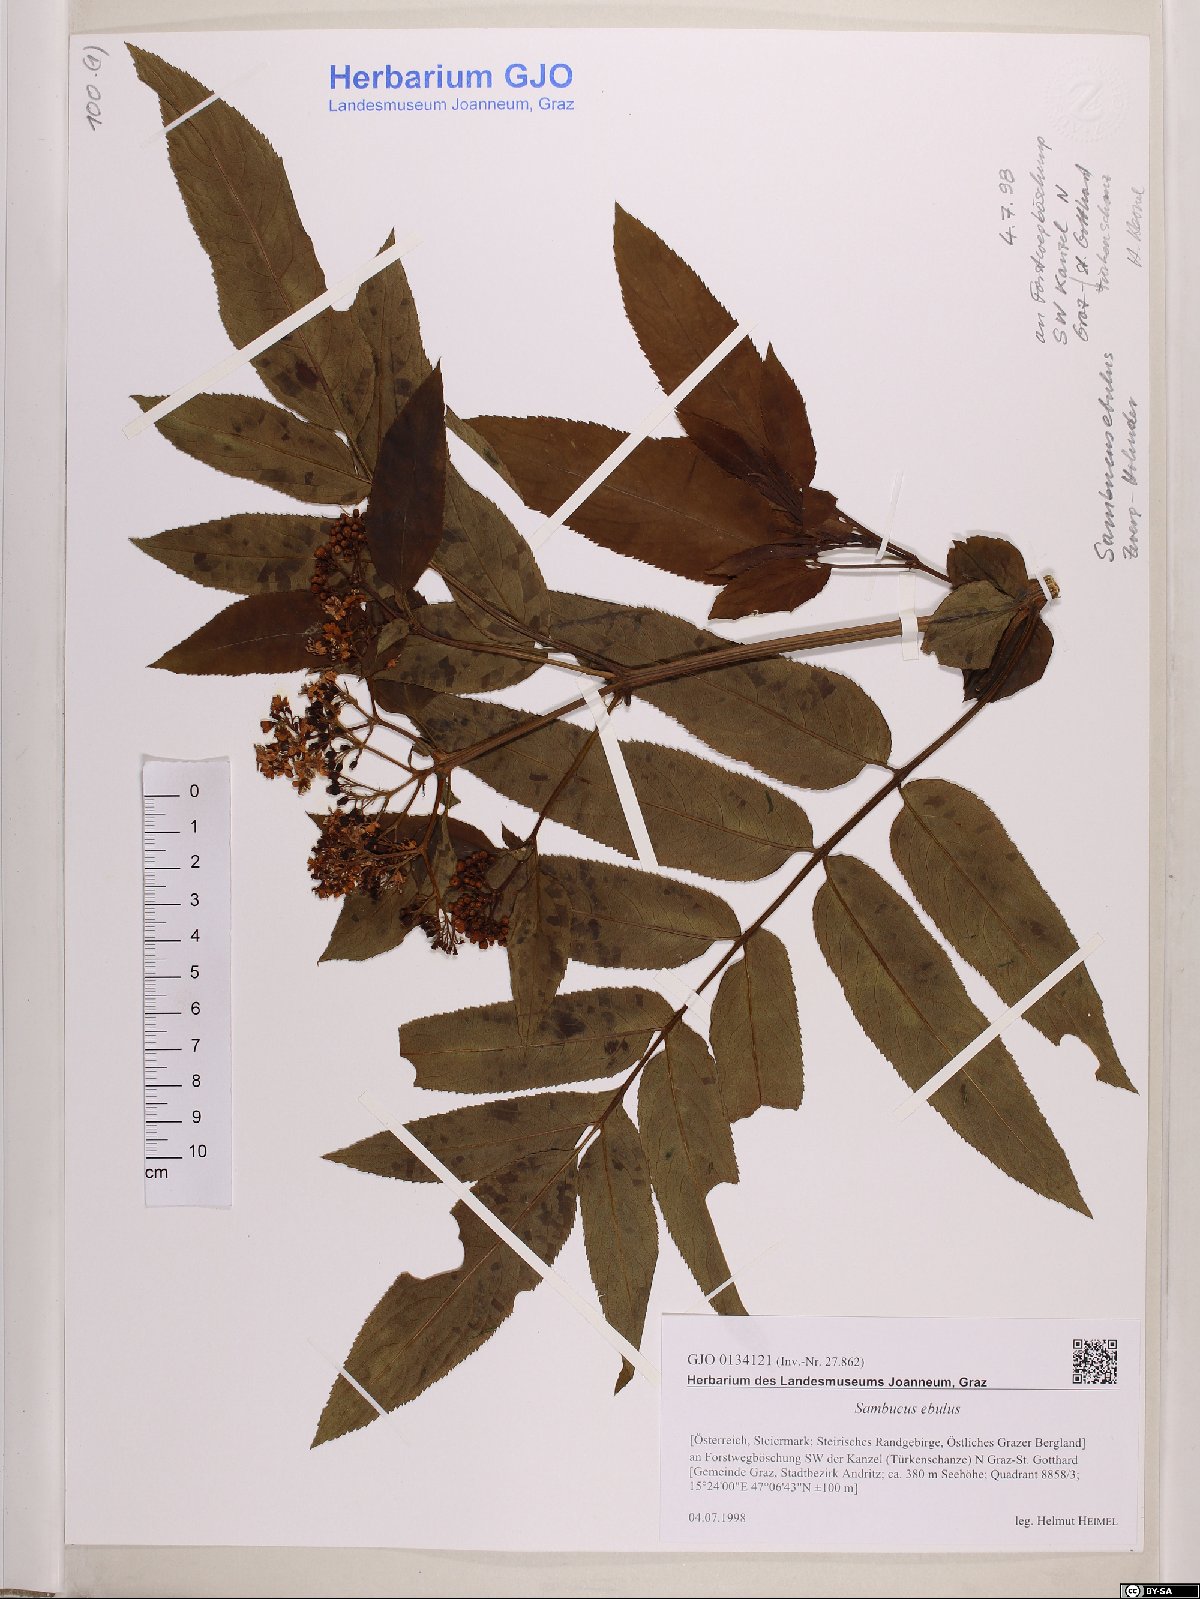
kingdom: Plantae
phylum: Tracheophyta
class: Magnoliopsida
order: Dipsacales
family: Viburnaceae
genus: Sambucus
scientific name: Sambucus ebulus
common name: Dwarf elder
